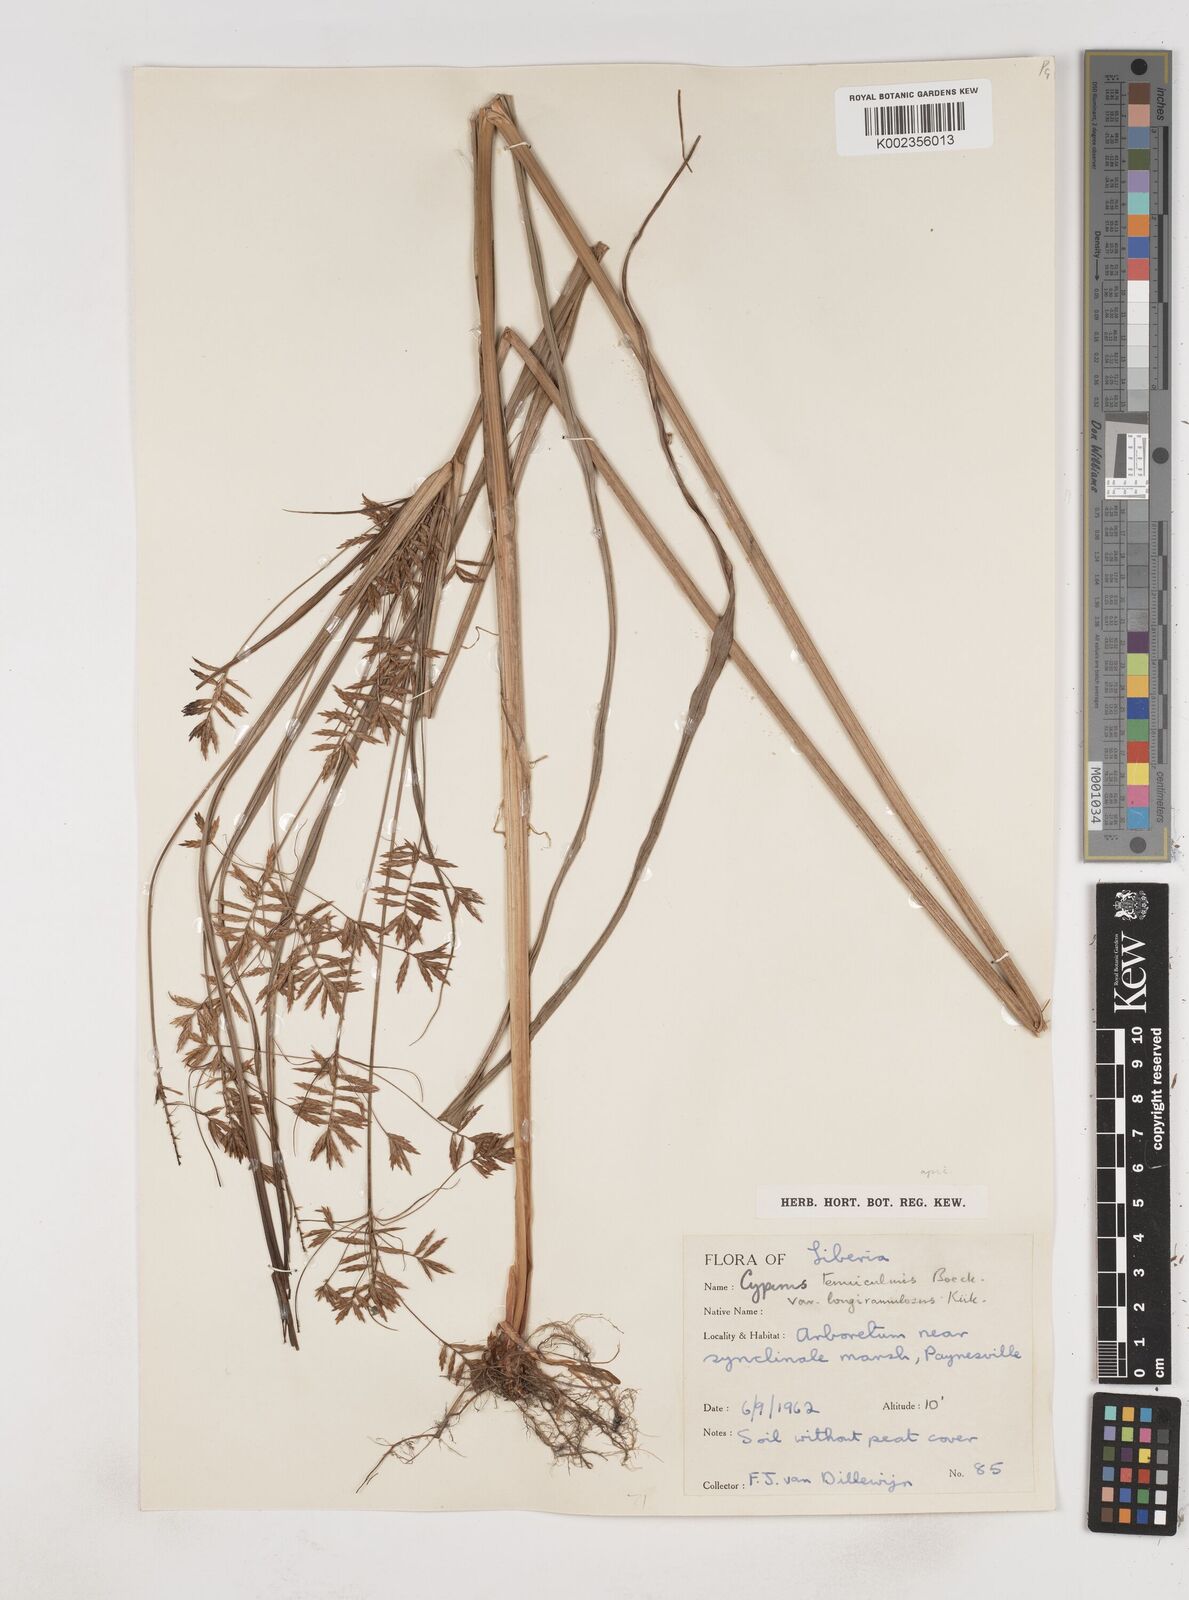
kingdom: Plantae
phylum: Tracheophyta
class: Liliopsida
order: Poales
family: Cyperaceae
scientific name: Cyperaceae
